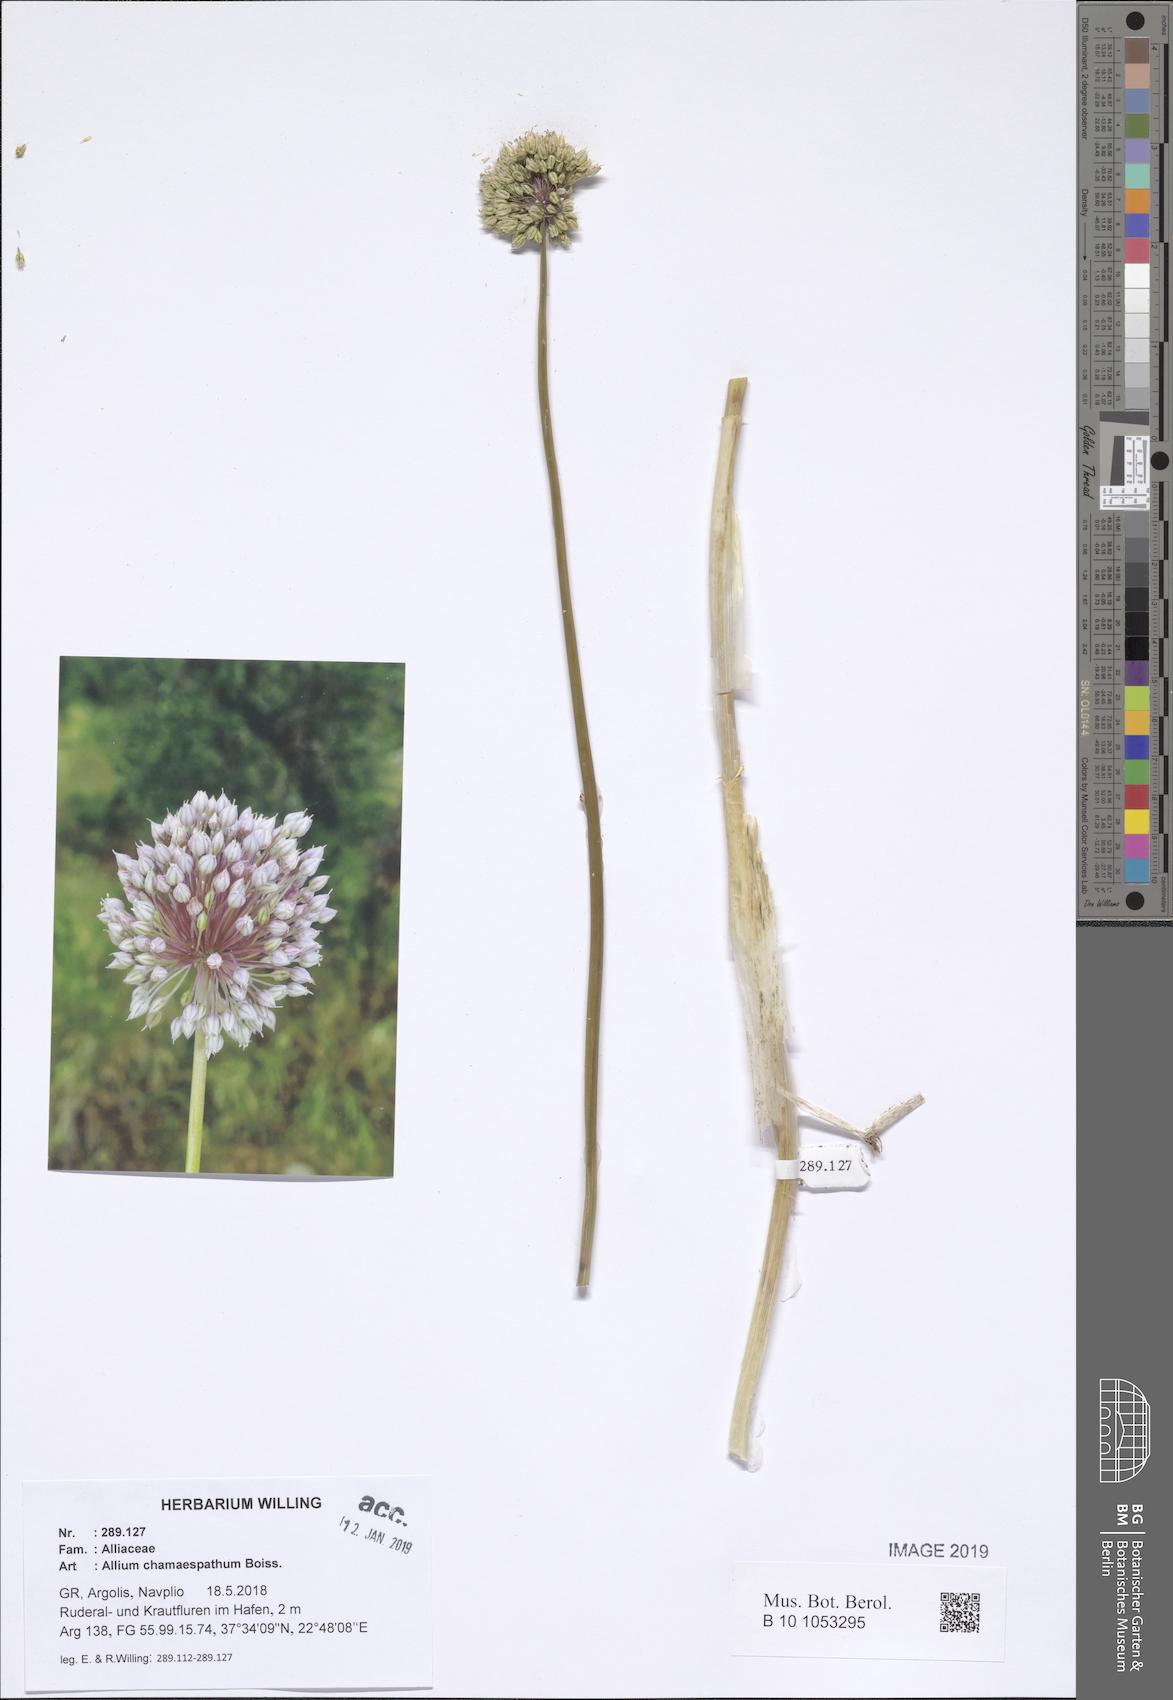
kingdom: Plantae
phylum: Tracheophyta
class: Liliopsida
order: Asparagales
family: Amaryllidaceae
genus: Allium
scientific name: Allium chamaespathum
